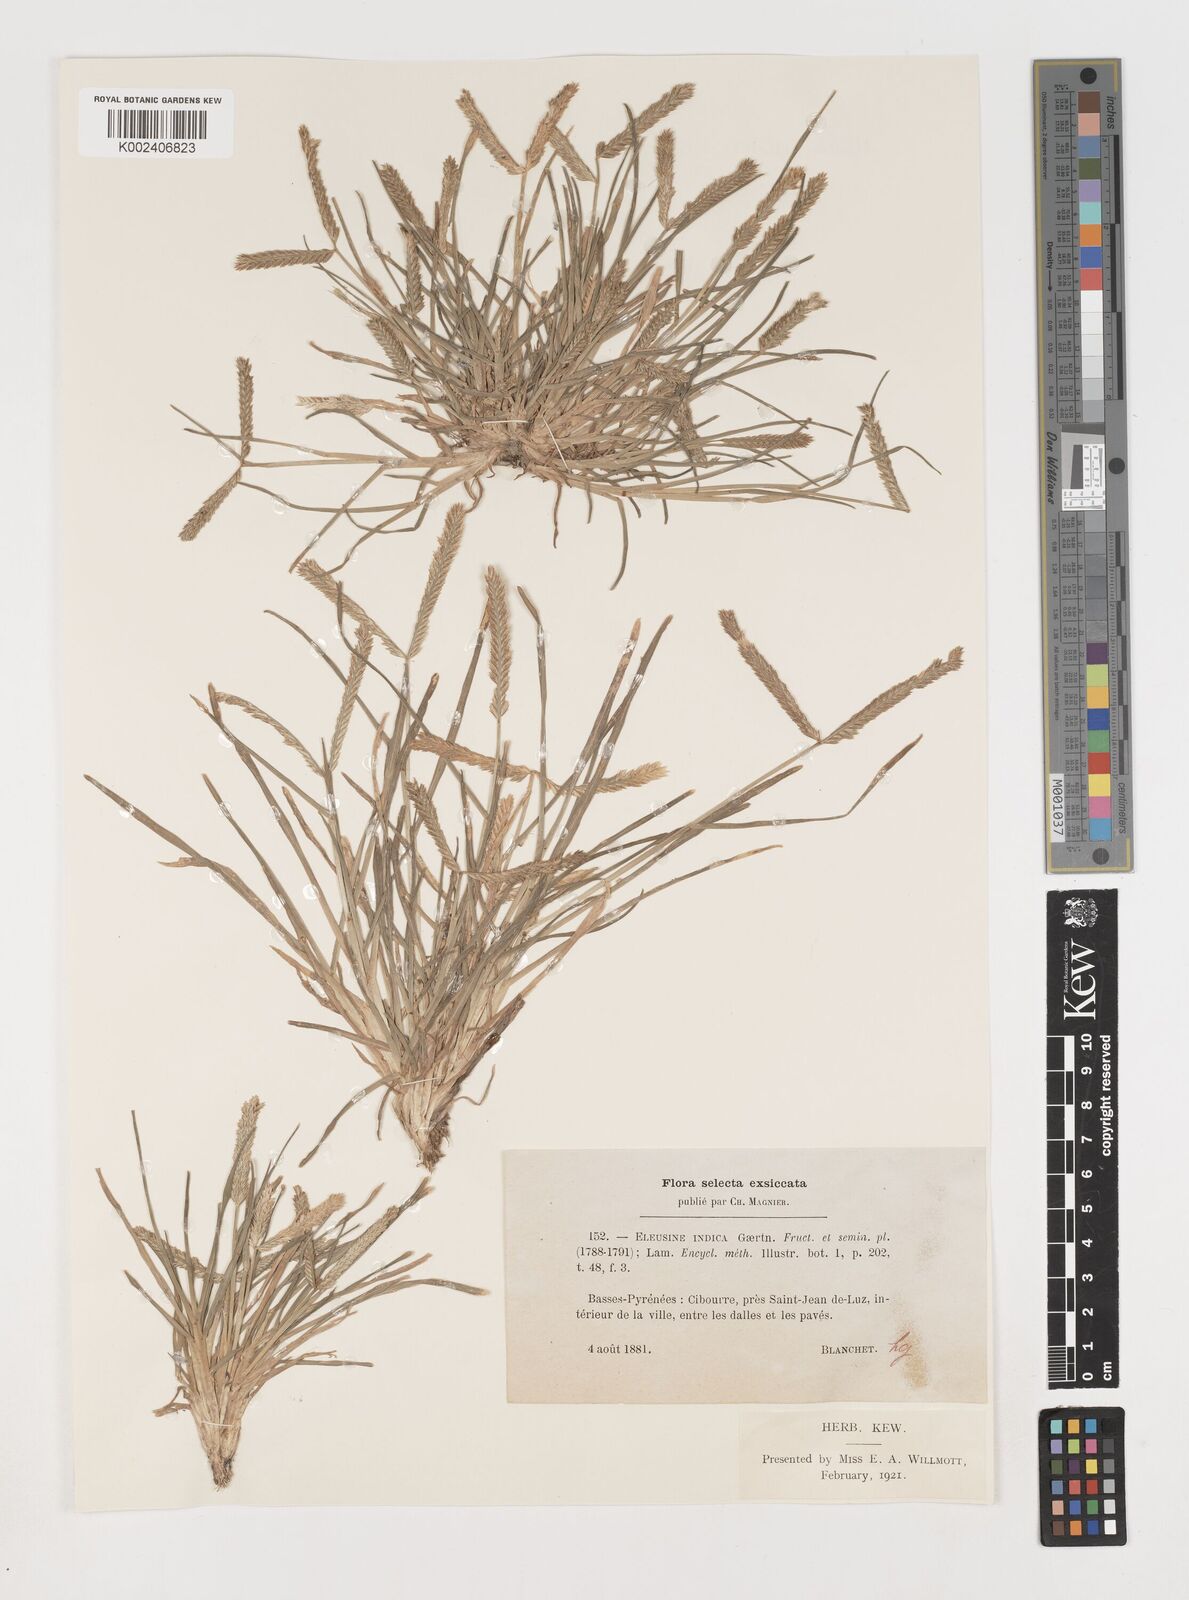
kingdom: Plantae
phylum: Tracheophyta
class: Liliopsida
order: Poales
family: Poaceae
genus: Eleusine
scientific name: Eleusine indica
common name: Yard-grass
